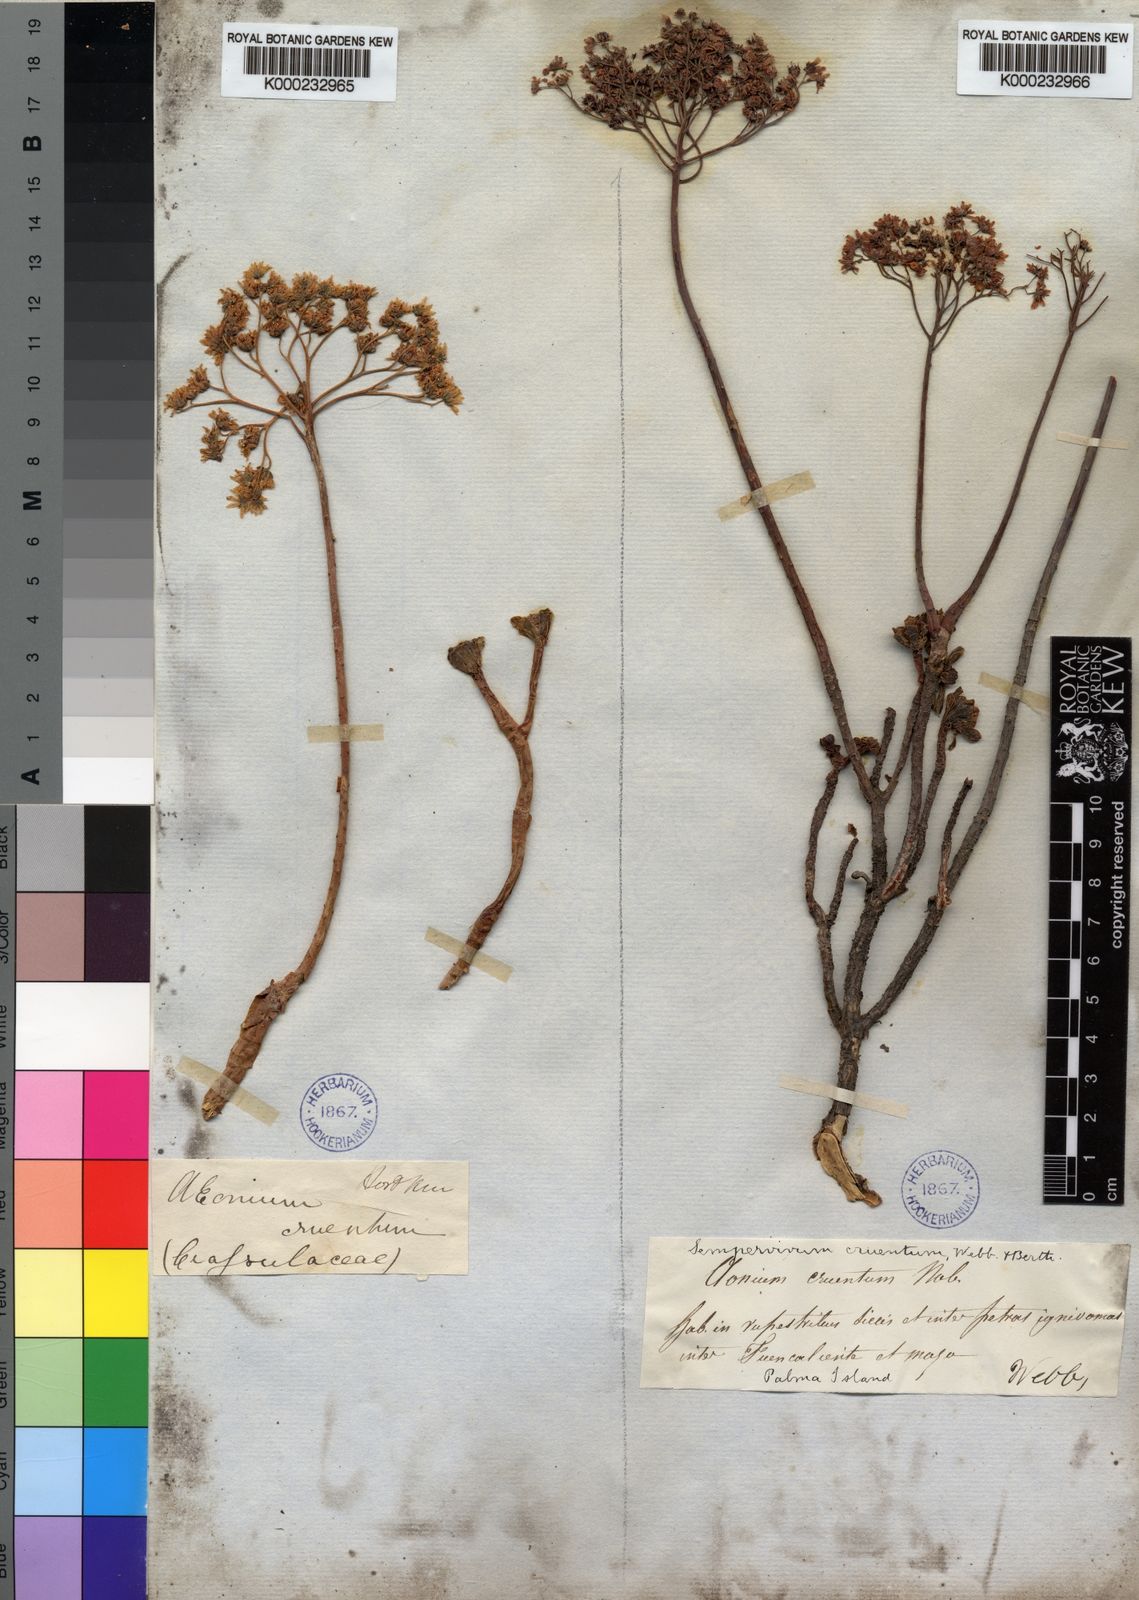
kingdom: Plantae
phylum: Tracheophyta
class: Magnoliopsida
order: Saxifragales
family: Crassulaceae
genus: Aeonium
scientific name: Aeonium spathulatum
